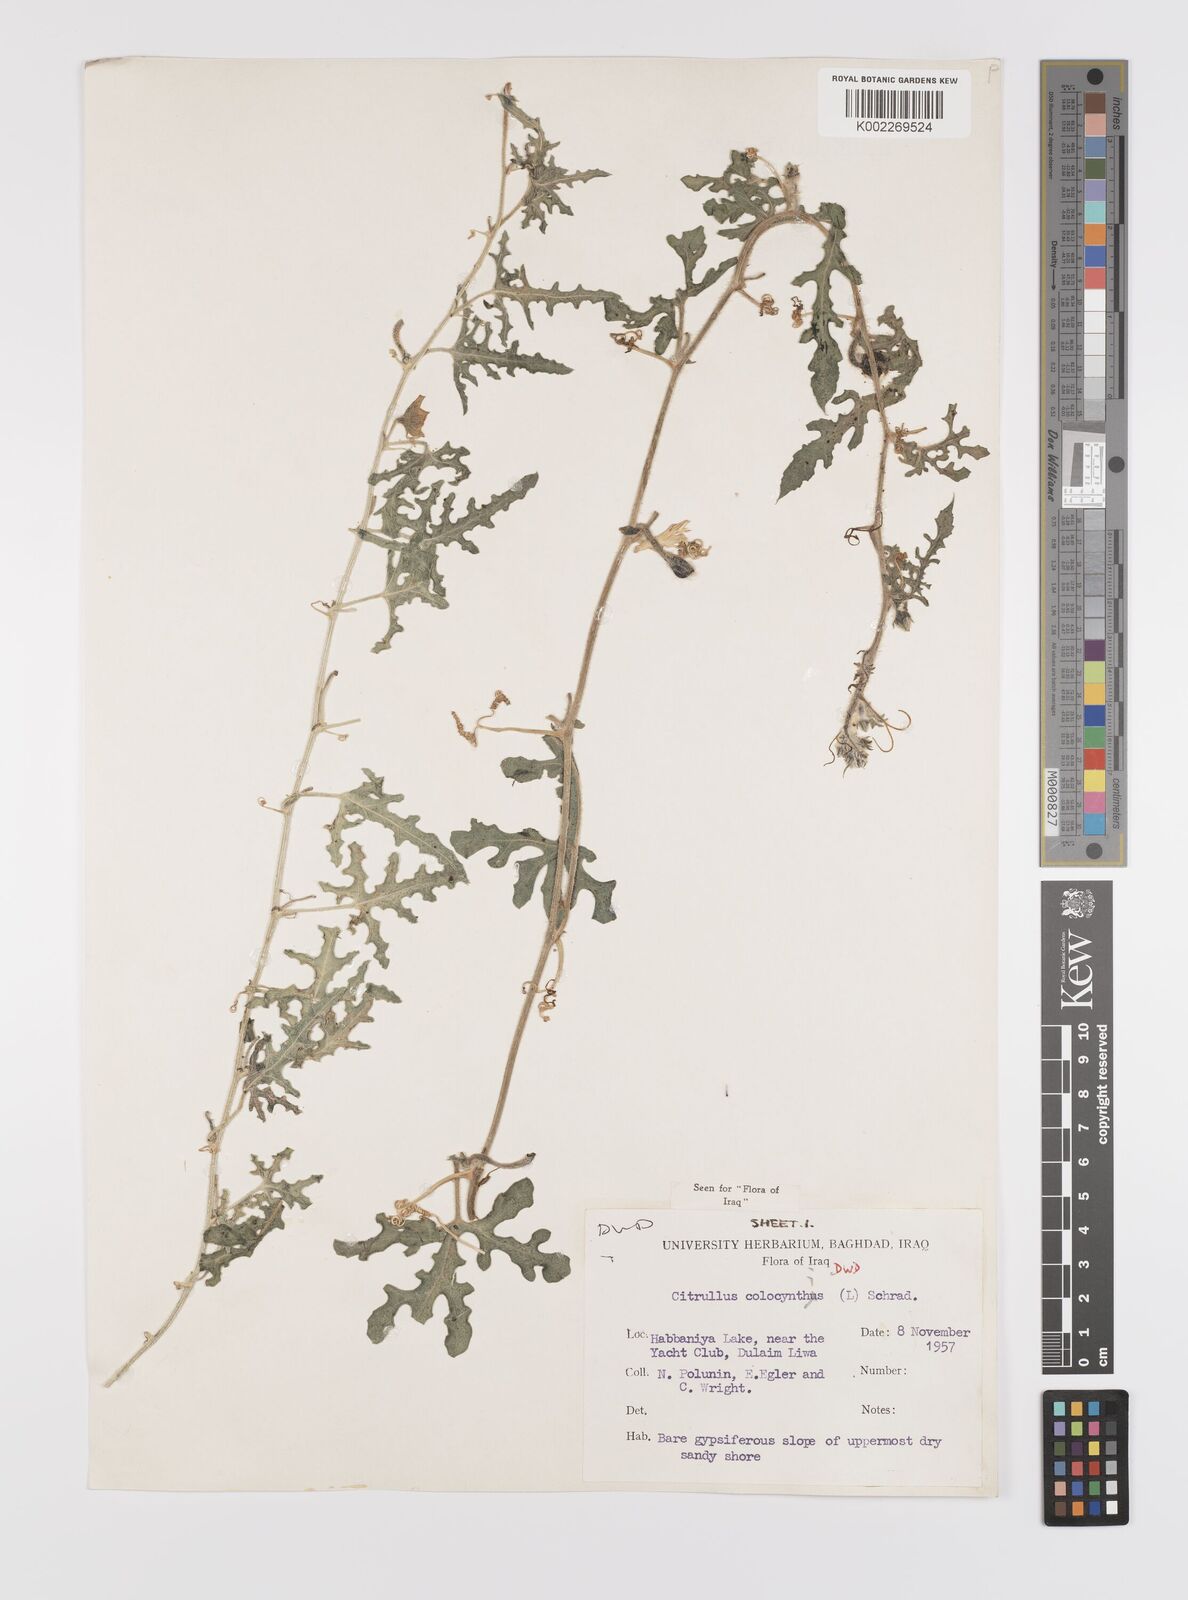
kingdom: Plantae
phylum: Tracheophyta
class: Magnoliopsida
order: Cucurbitales
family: Cucurbitaceae
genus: Citrullus
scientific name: Citrullus colocynthis
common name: Colocynth
